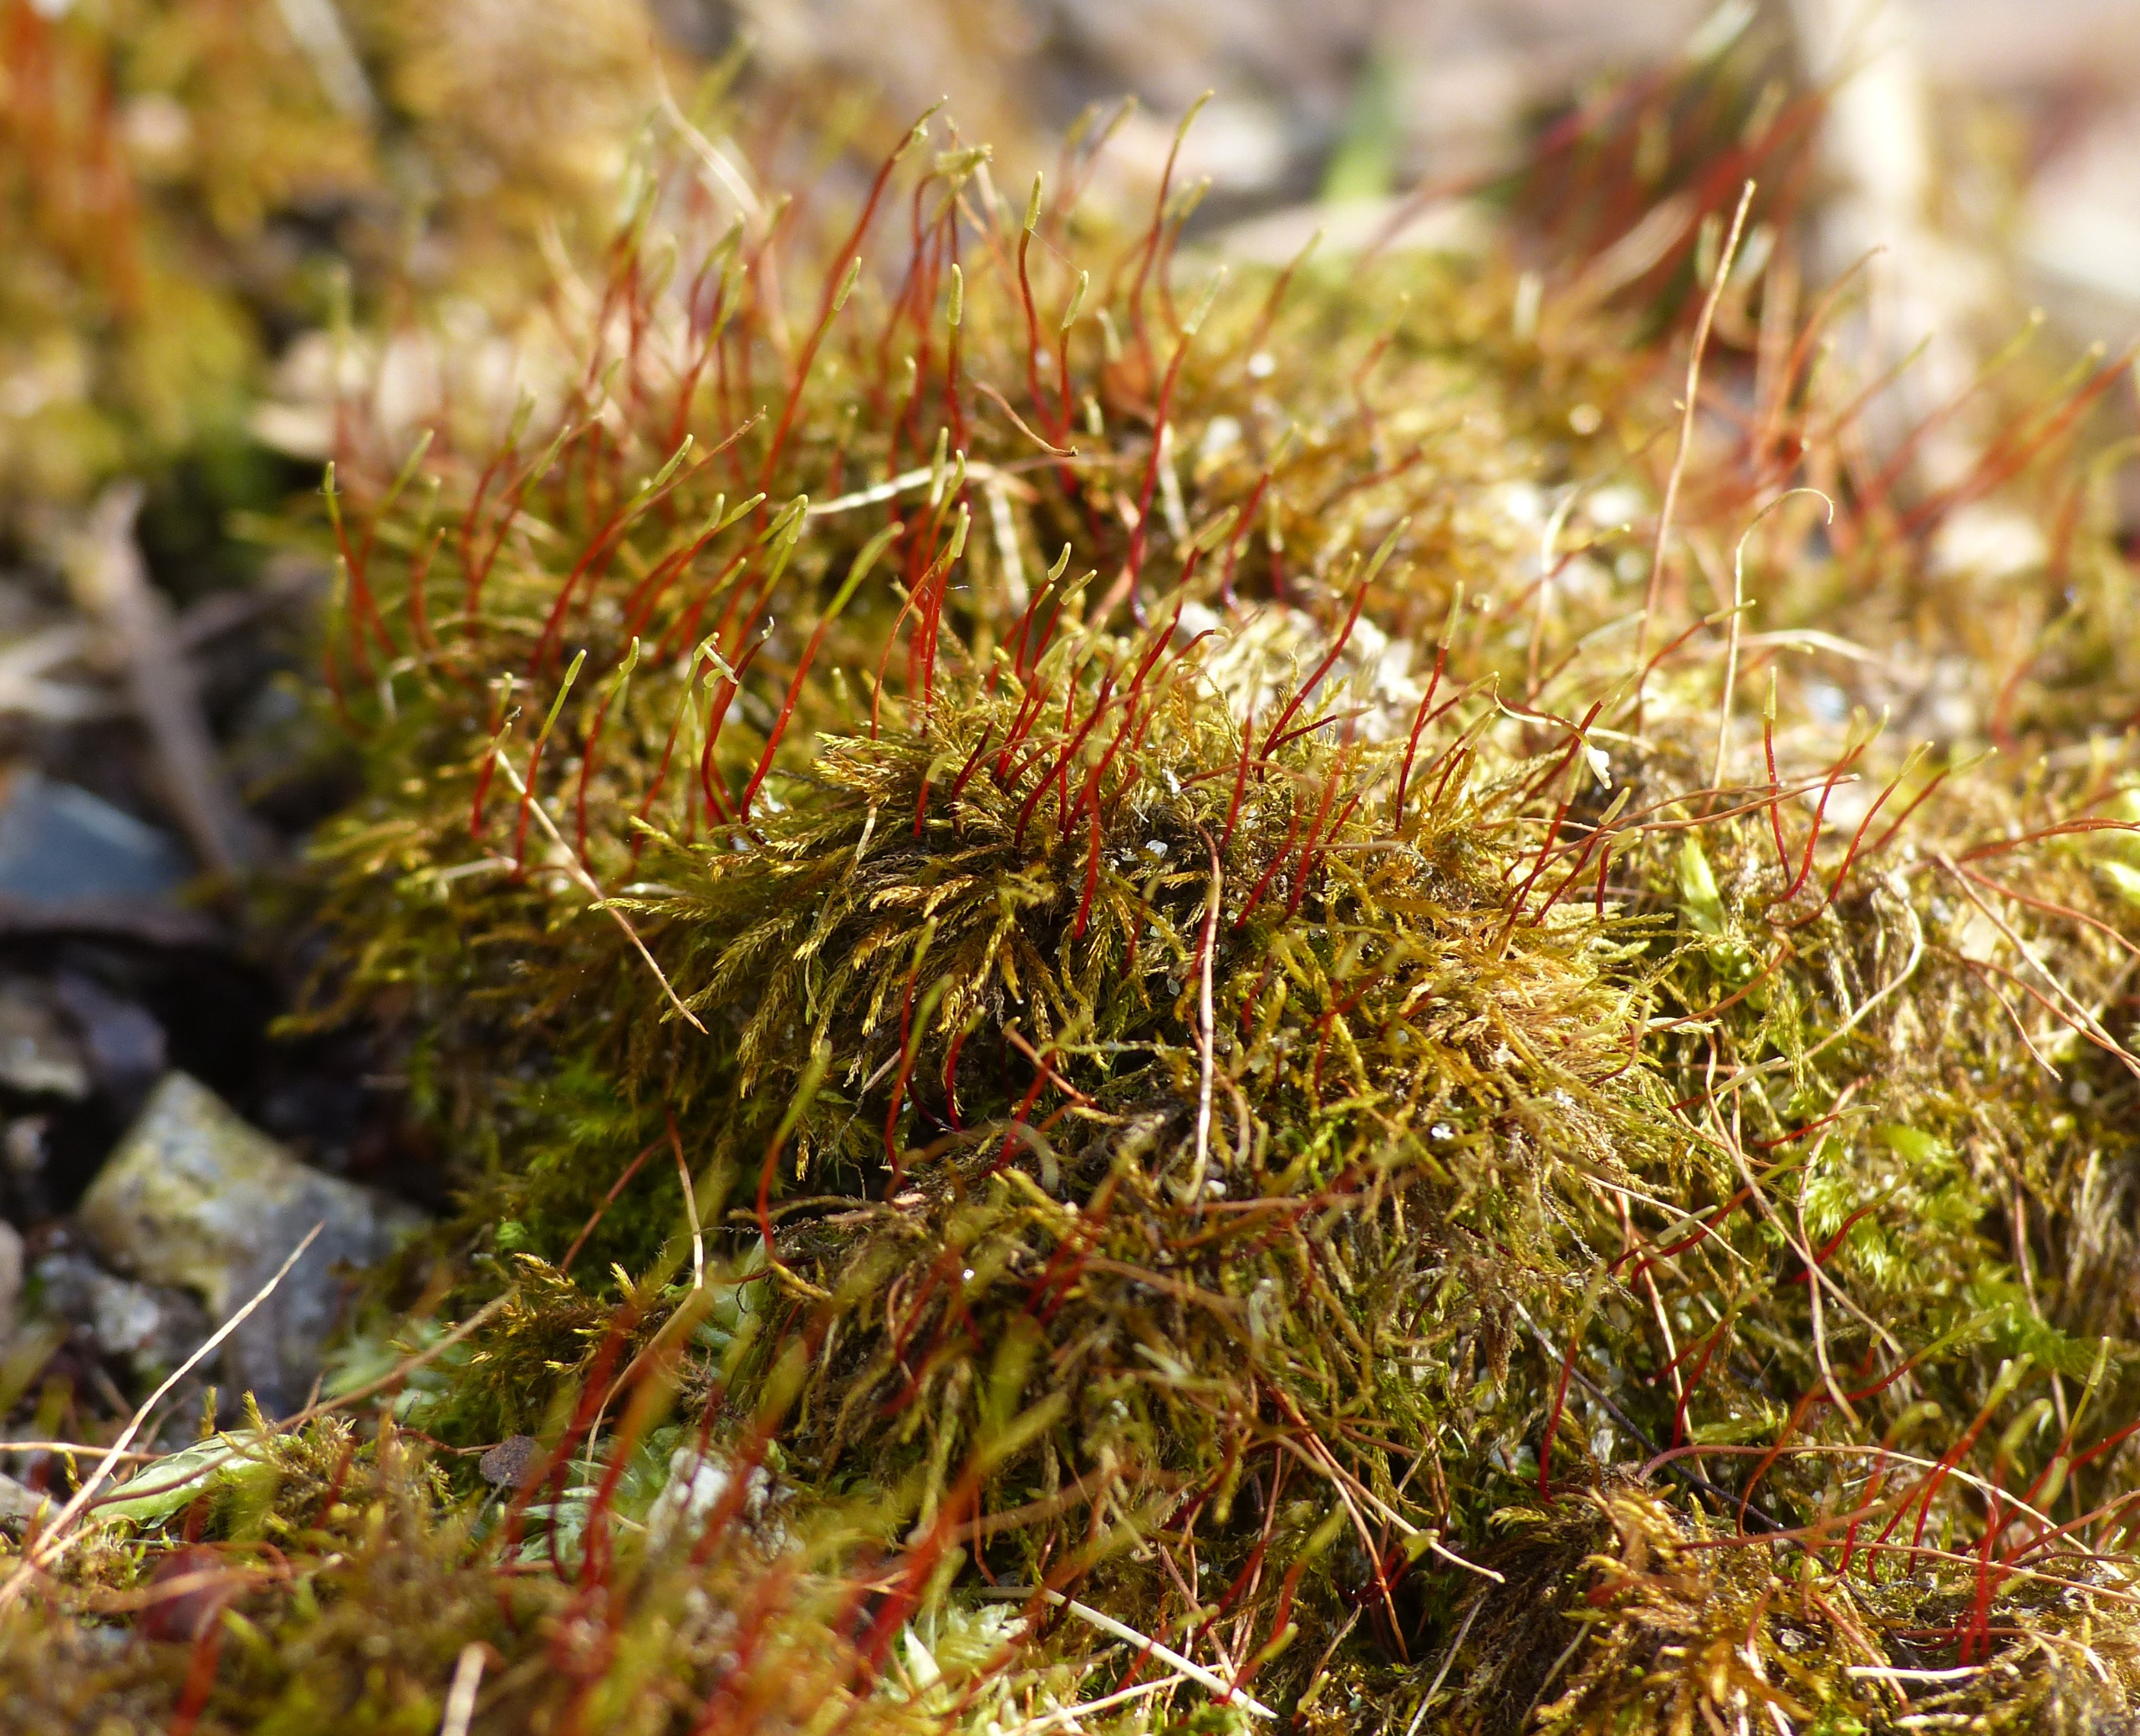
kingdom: Plantae
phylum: Bryophyta
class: Bryopsida
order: Hypnales
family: Amblystegiaceae
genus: Amblystegium
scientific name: Amblystegium serpens
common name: Almindelig krybmos
